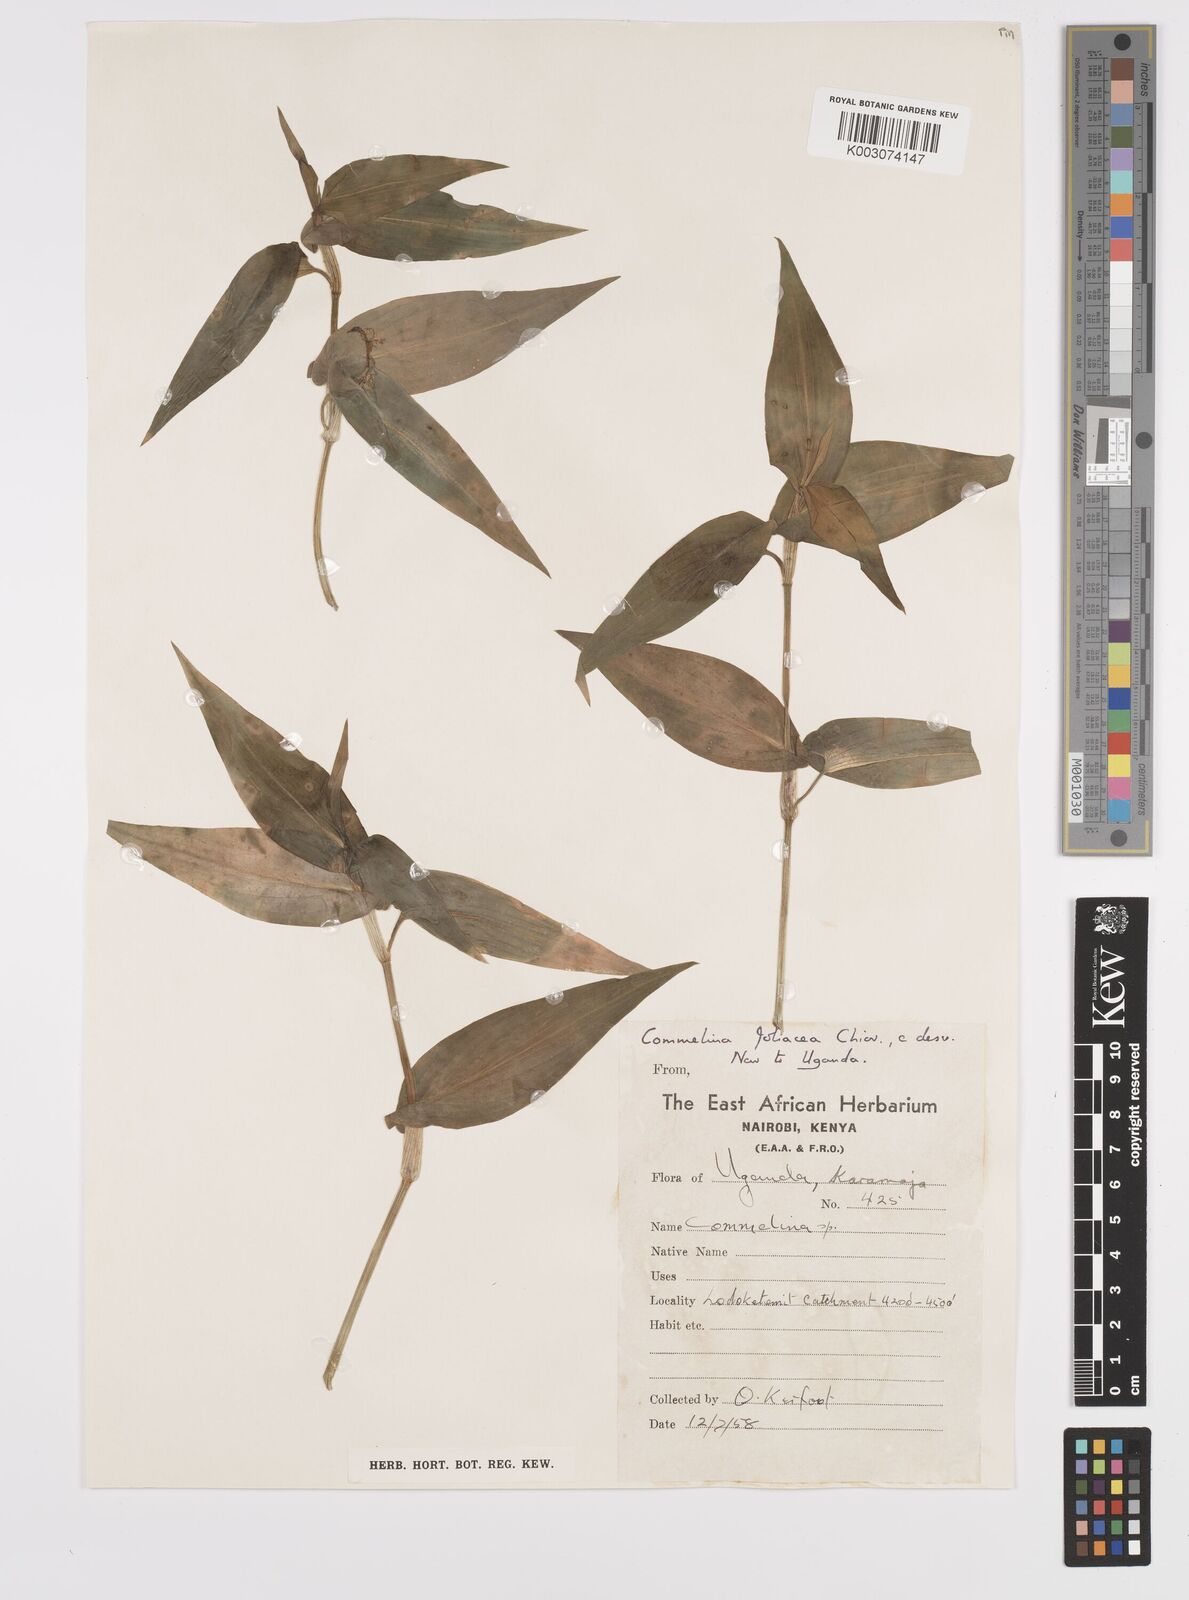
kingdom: Plantae
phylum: Tracheophyta
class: Liliopsida
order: Commelinales
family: Commelinaceae
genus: Commelina
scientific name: Commelina foliacea
